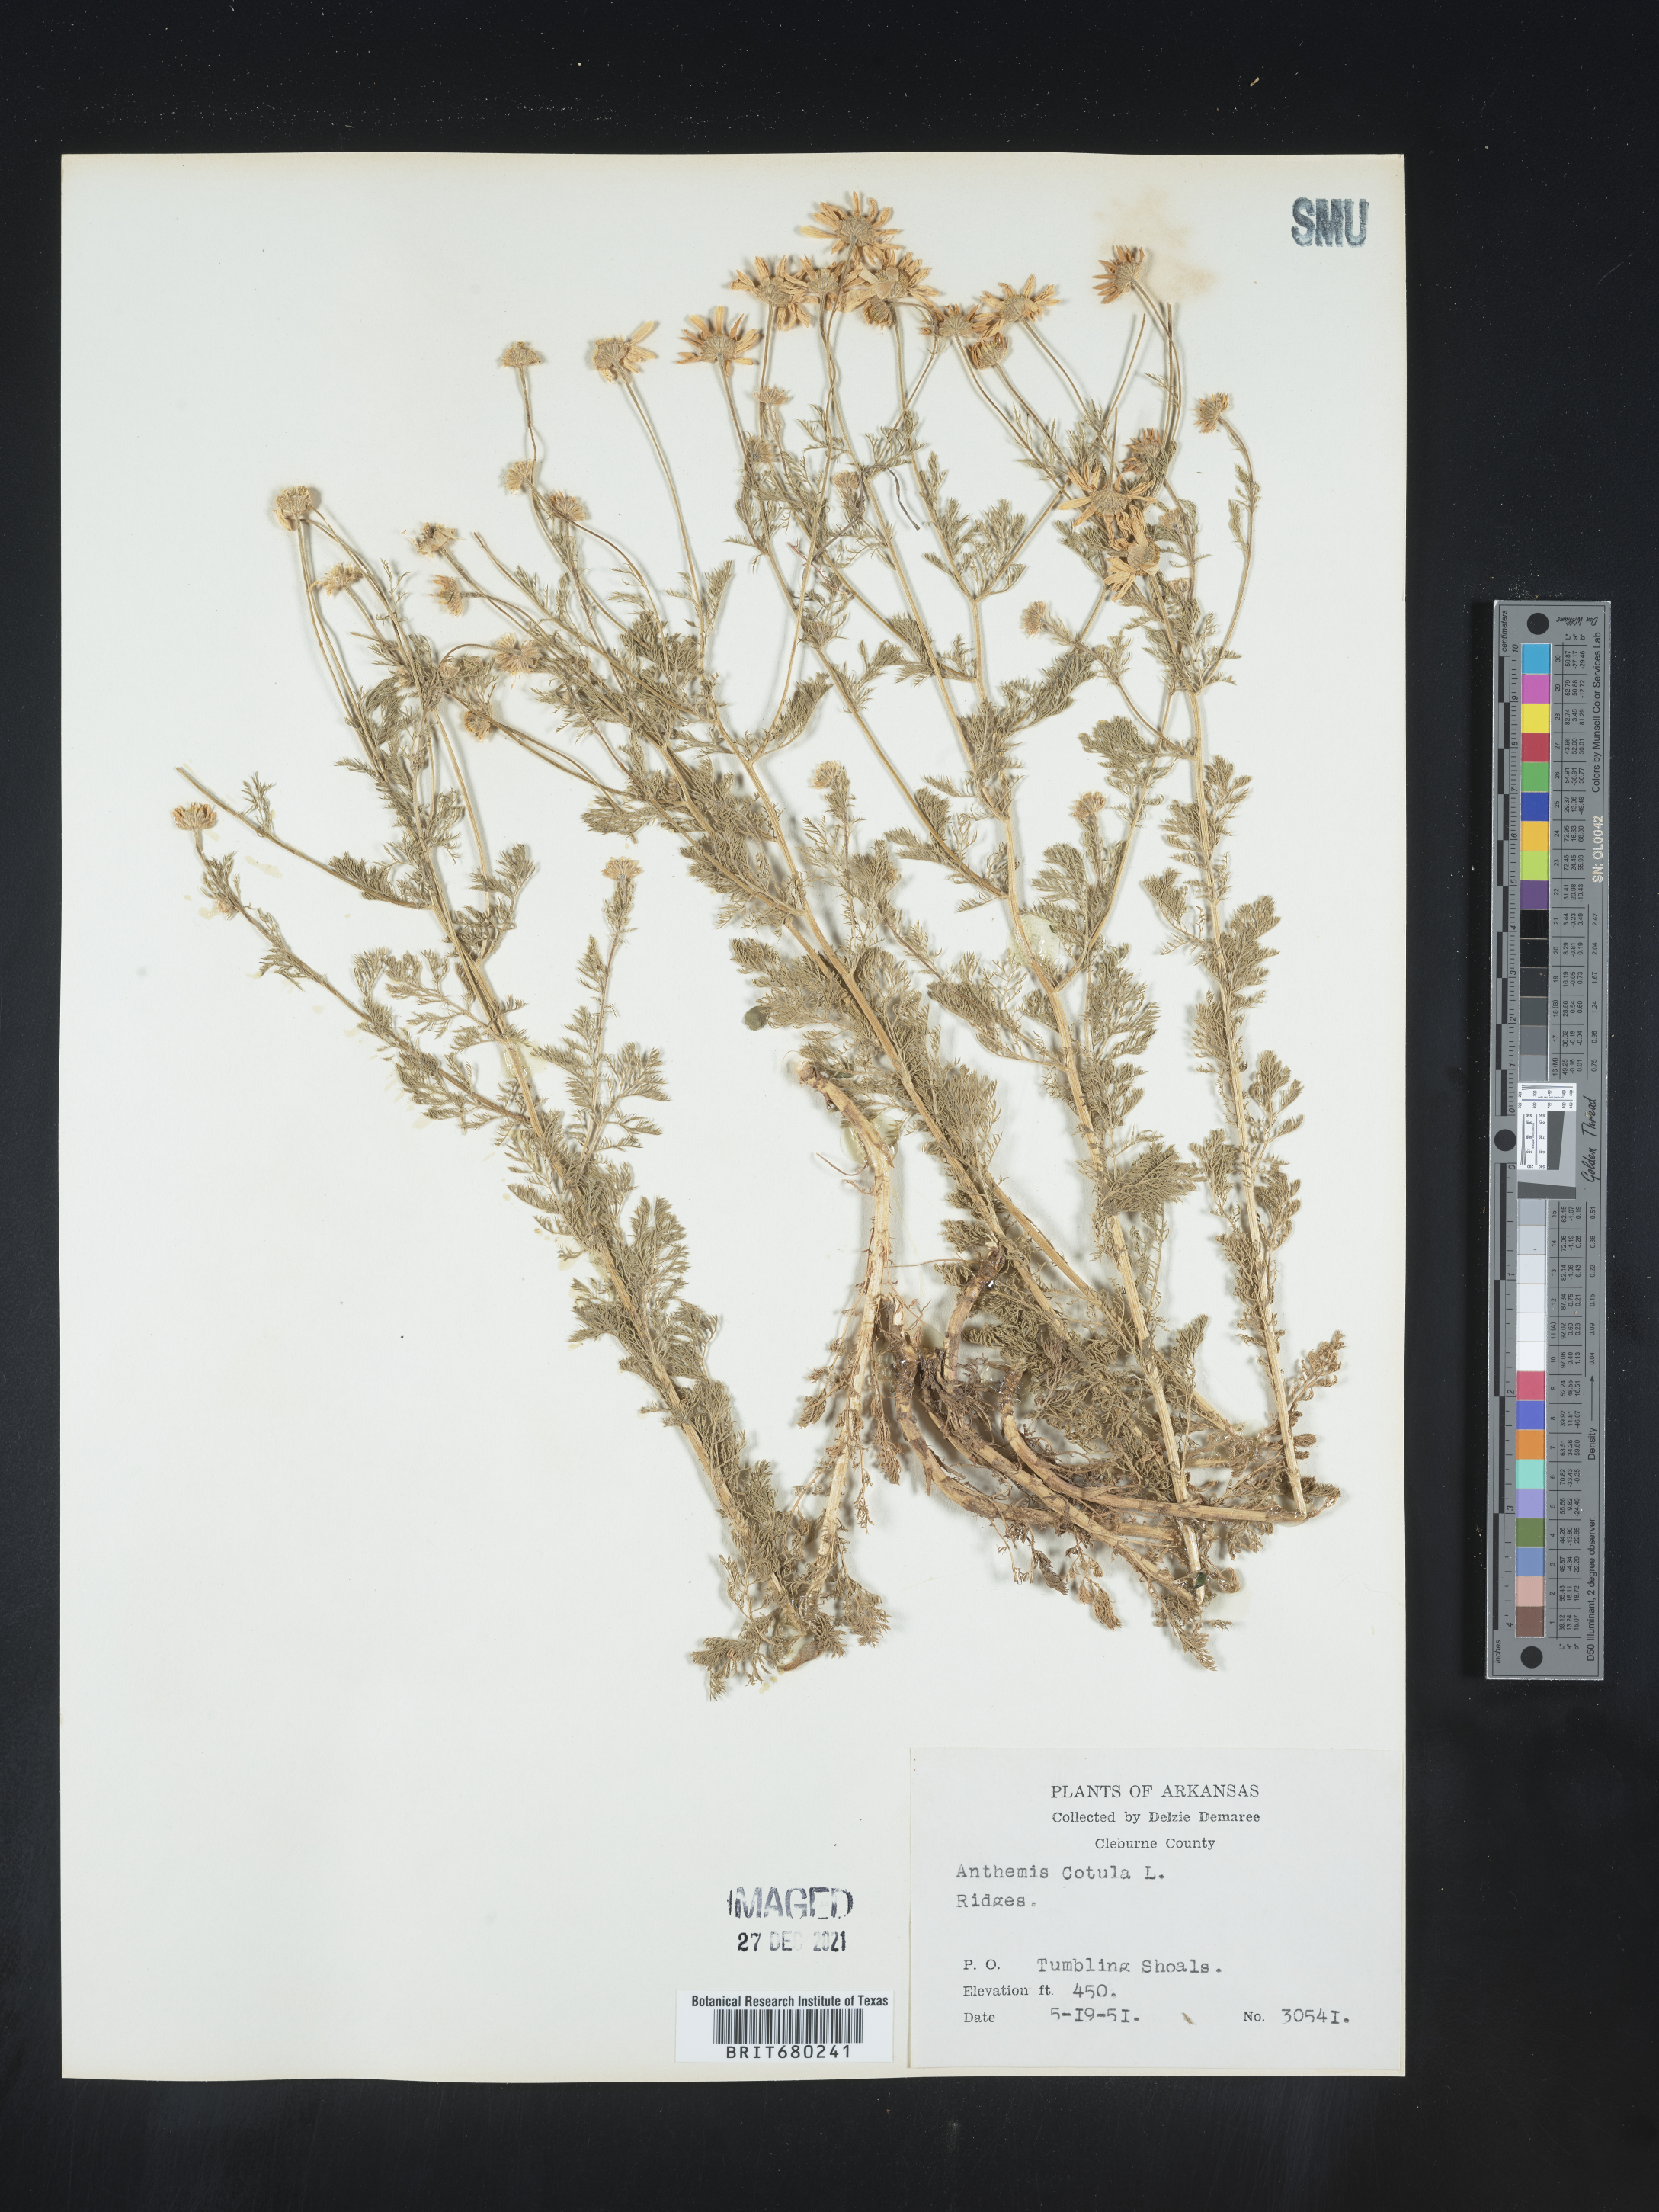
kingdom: Plantae
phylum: Tracheophyta
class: Magnoliopsida
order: Asterales
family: Asteraceae
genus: Anthemis
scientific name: Anthemis cotula
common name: Stinking chamomile
